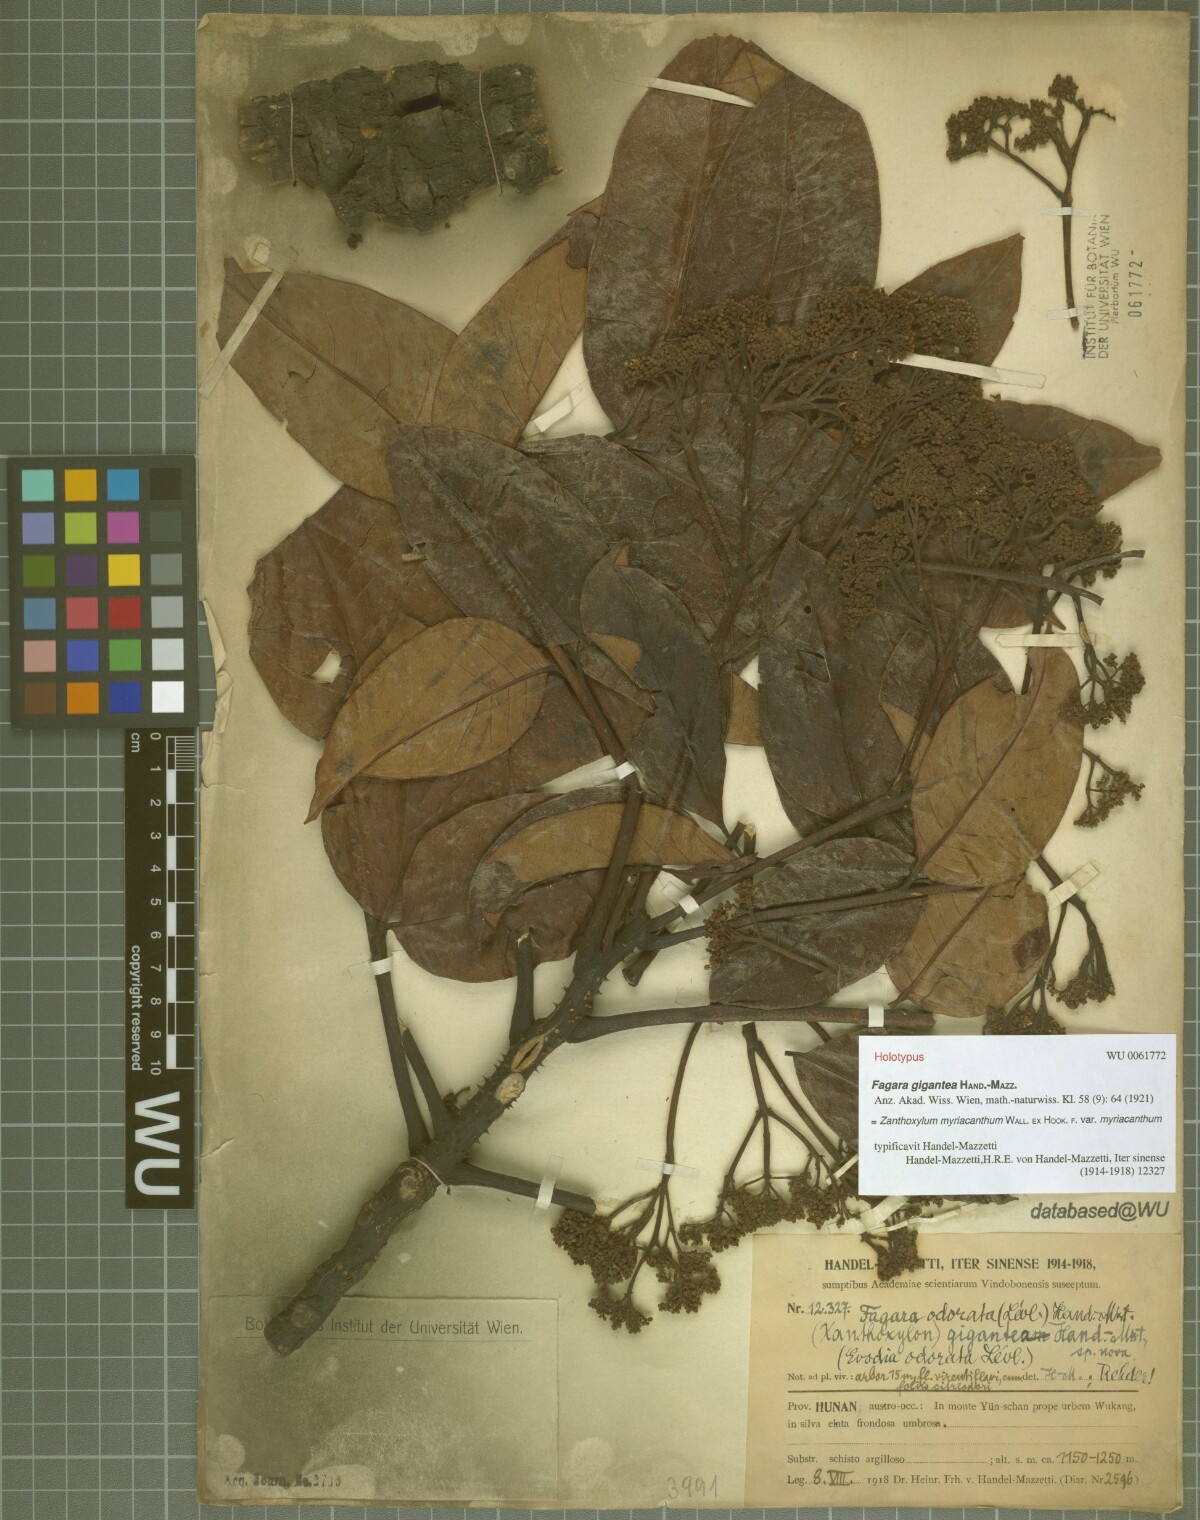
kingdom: Plantae
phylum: Tracheophyta
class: Magnoliopsida
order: Sapindales
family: Rutaceae
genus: Zanthoxylum
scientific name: Zanthoxylum myriacanthum
